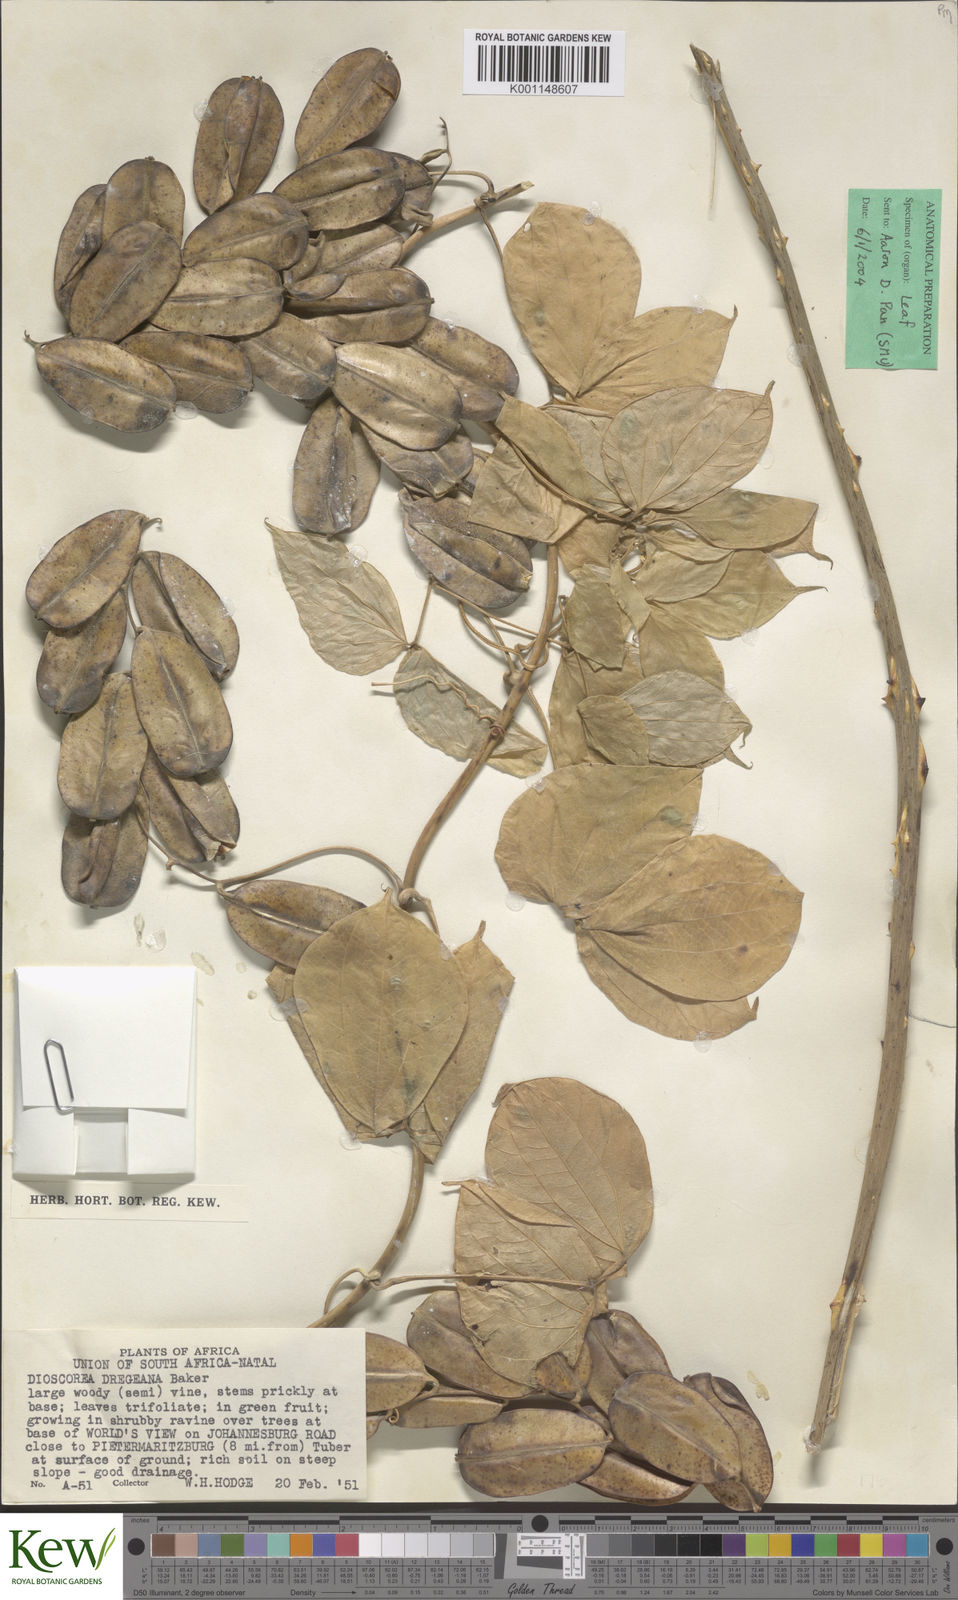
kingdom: Plantae
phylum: Tracheophyta
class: Liliopsida
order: Dioscoreales
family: Dioscoreaceae
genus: Dioscorea
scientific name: Dioscorea dregeana
